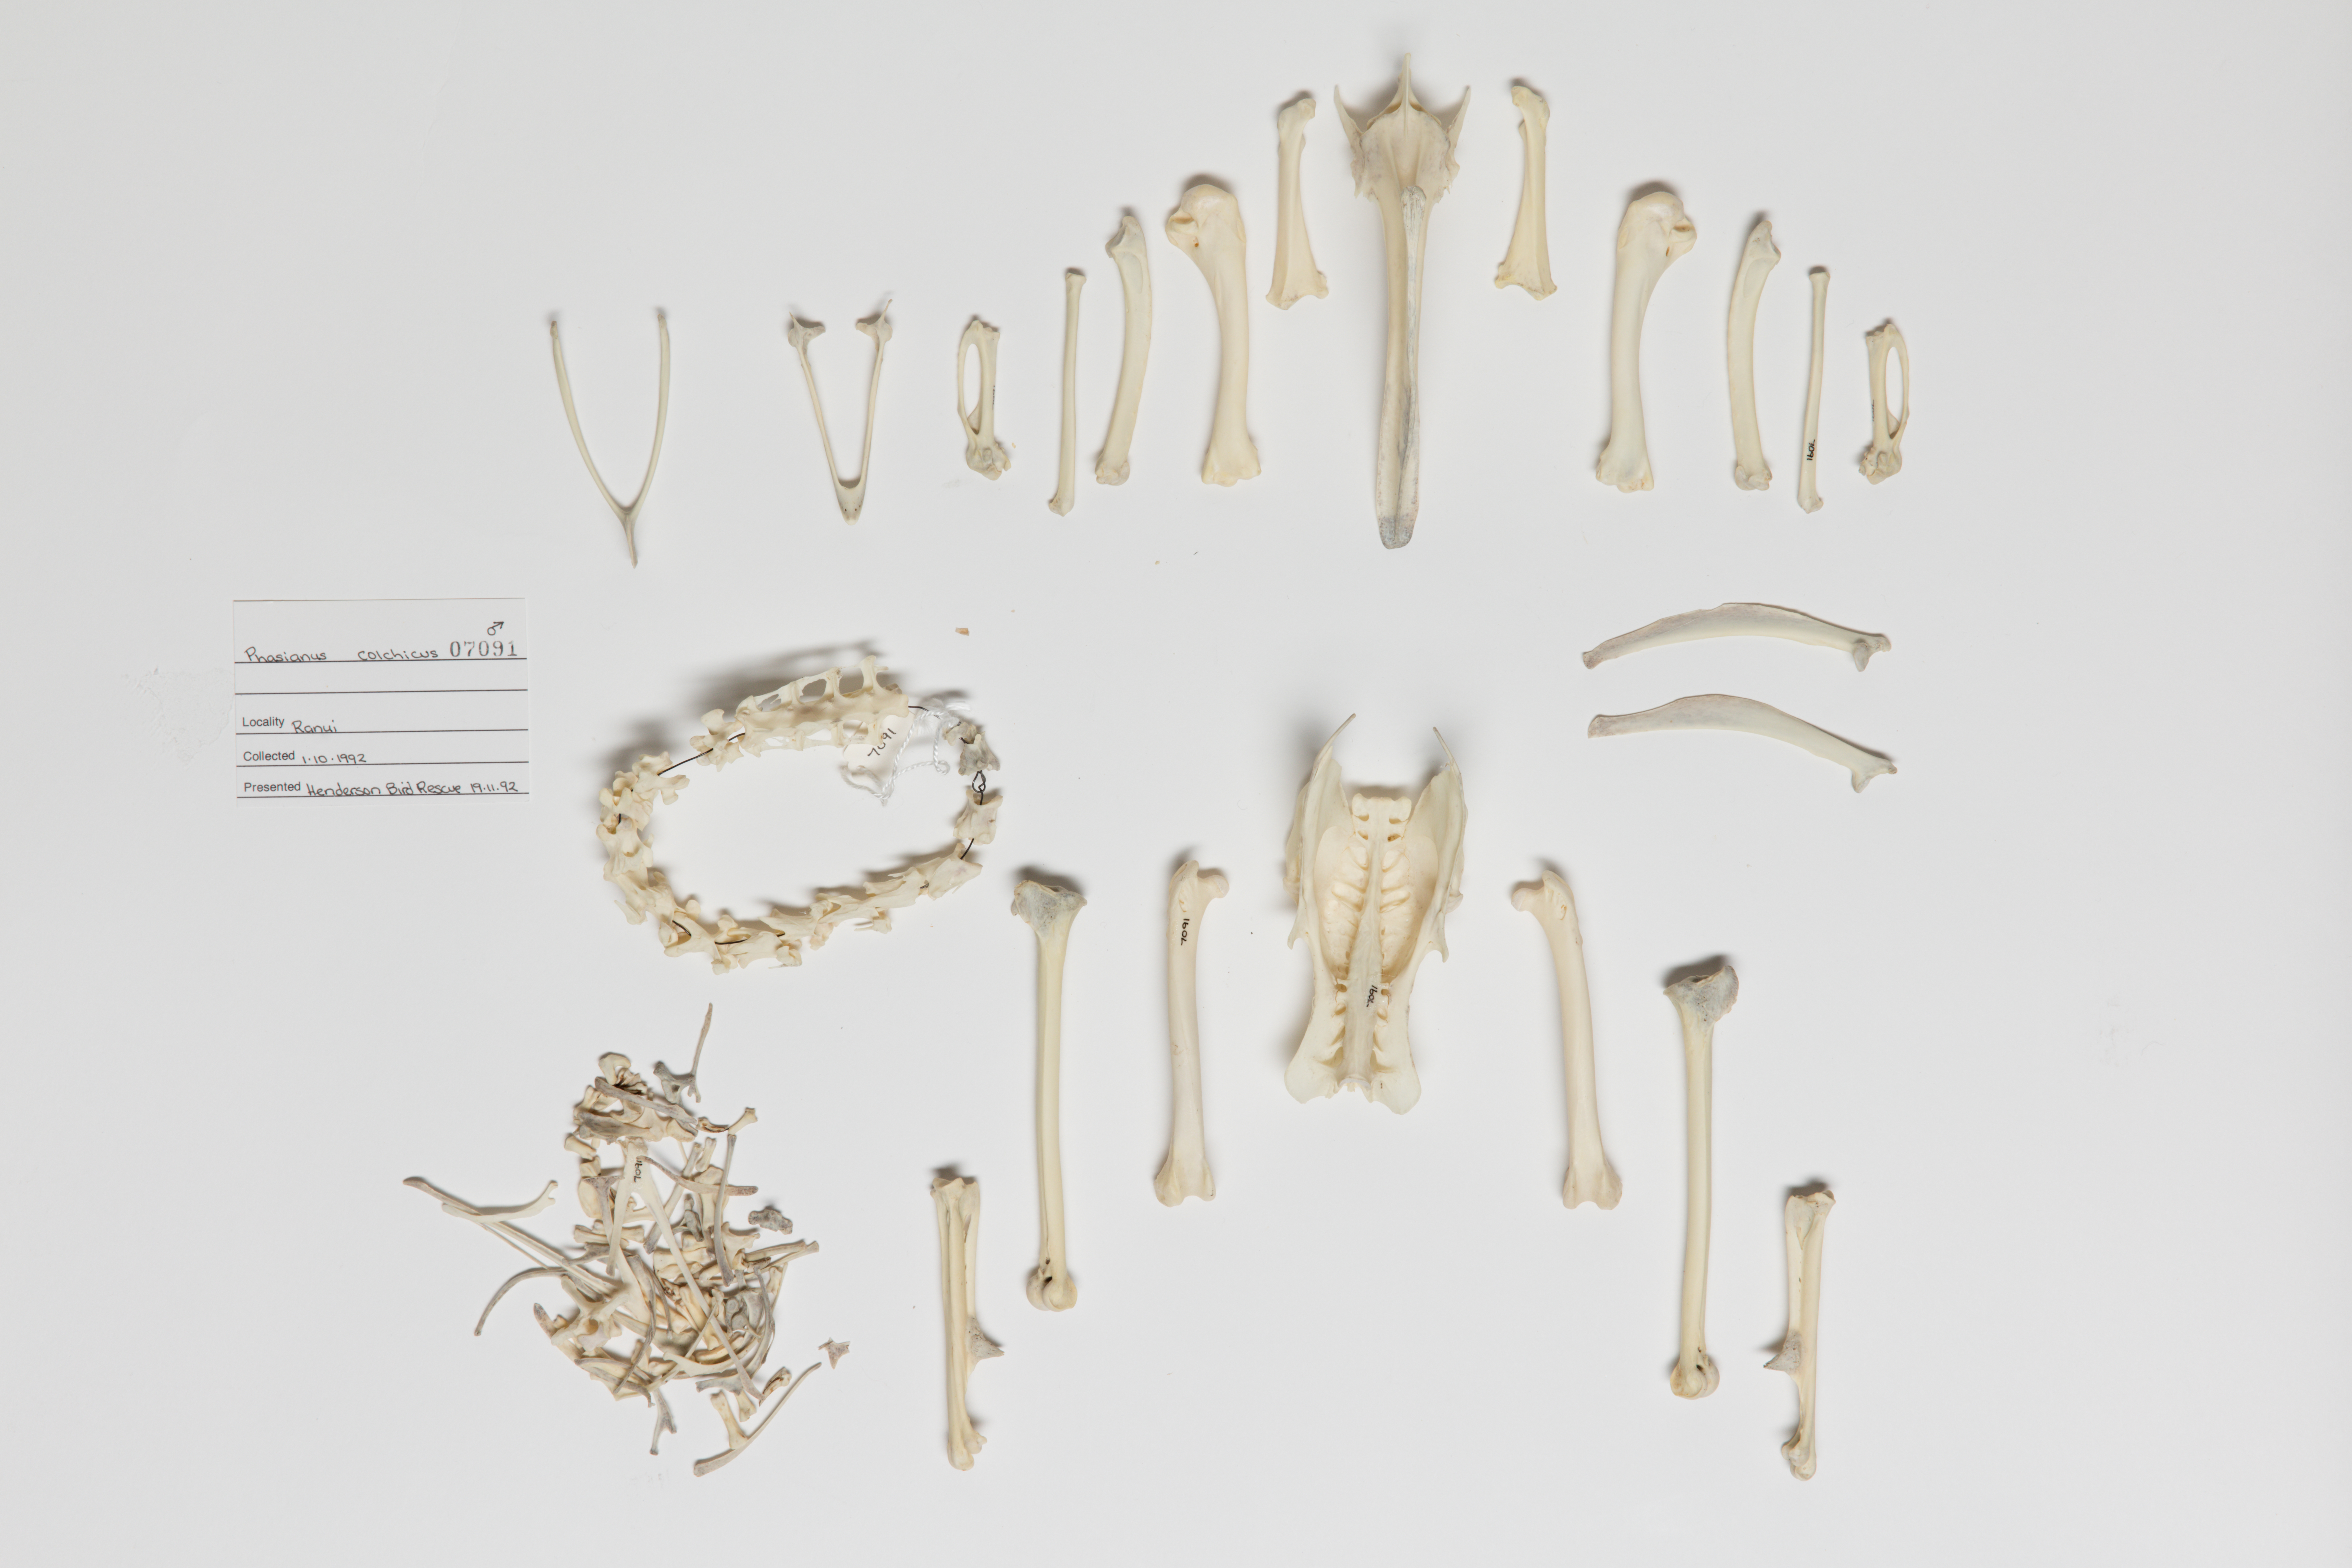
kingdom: Animalia
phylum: Chordata
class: Aves
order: Galliformes
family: Phasianidae
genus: Phasianus
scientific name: Phasianus colchicus
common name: Common pheasant
